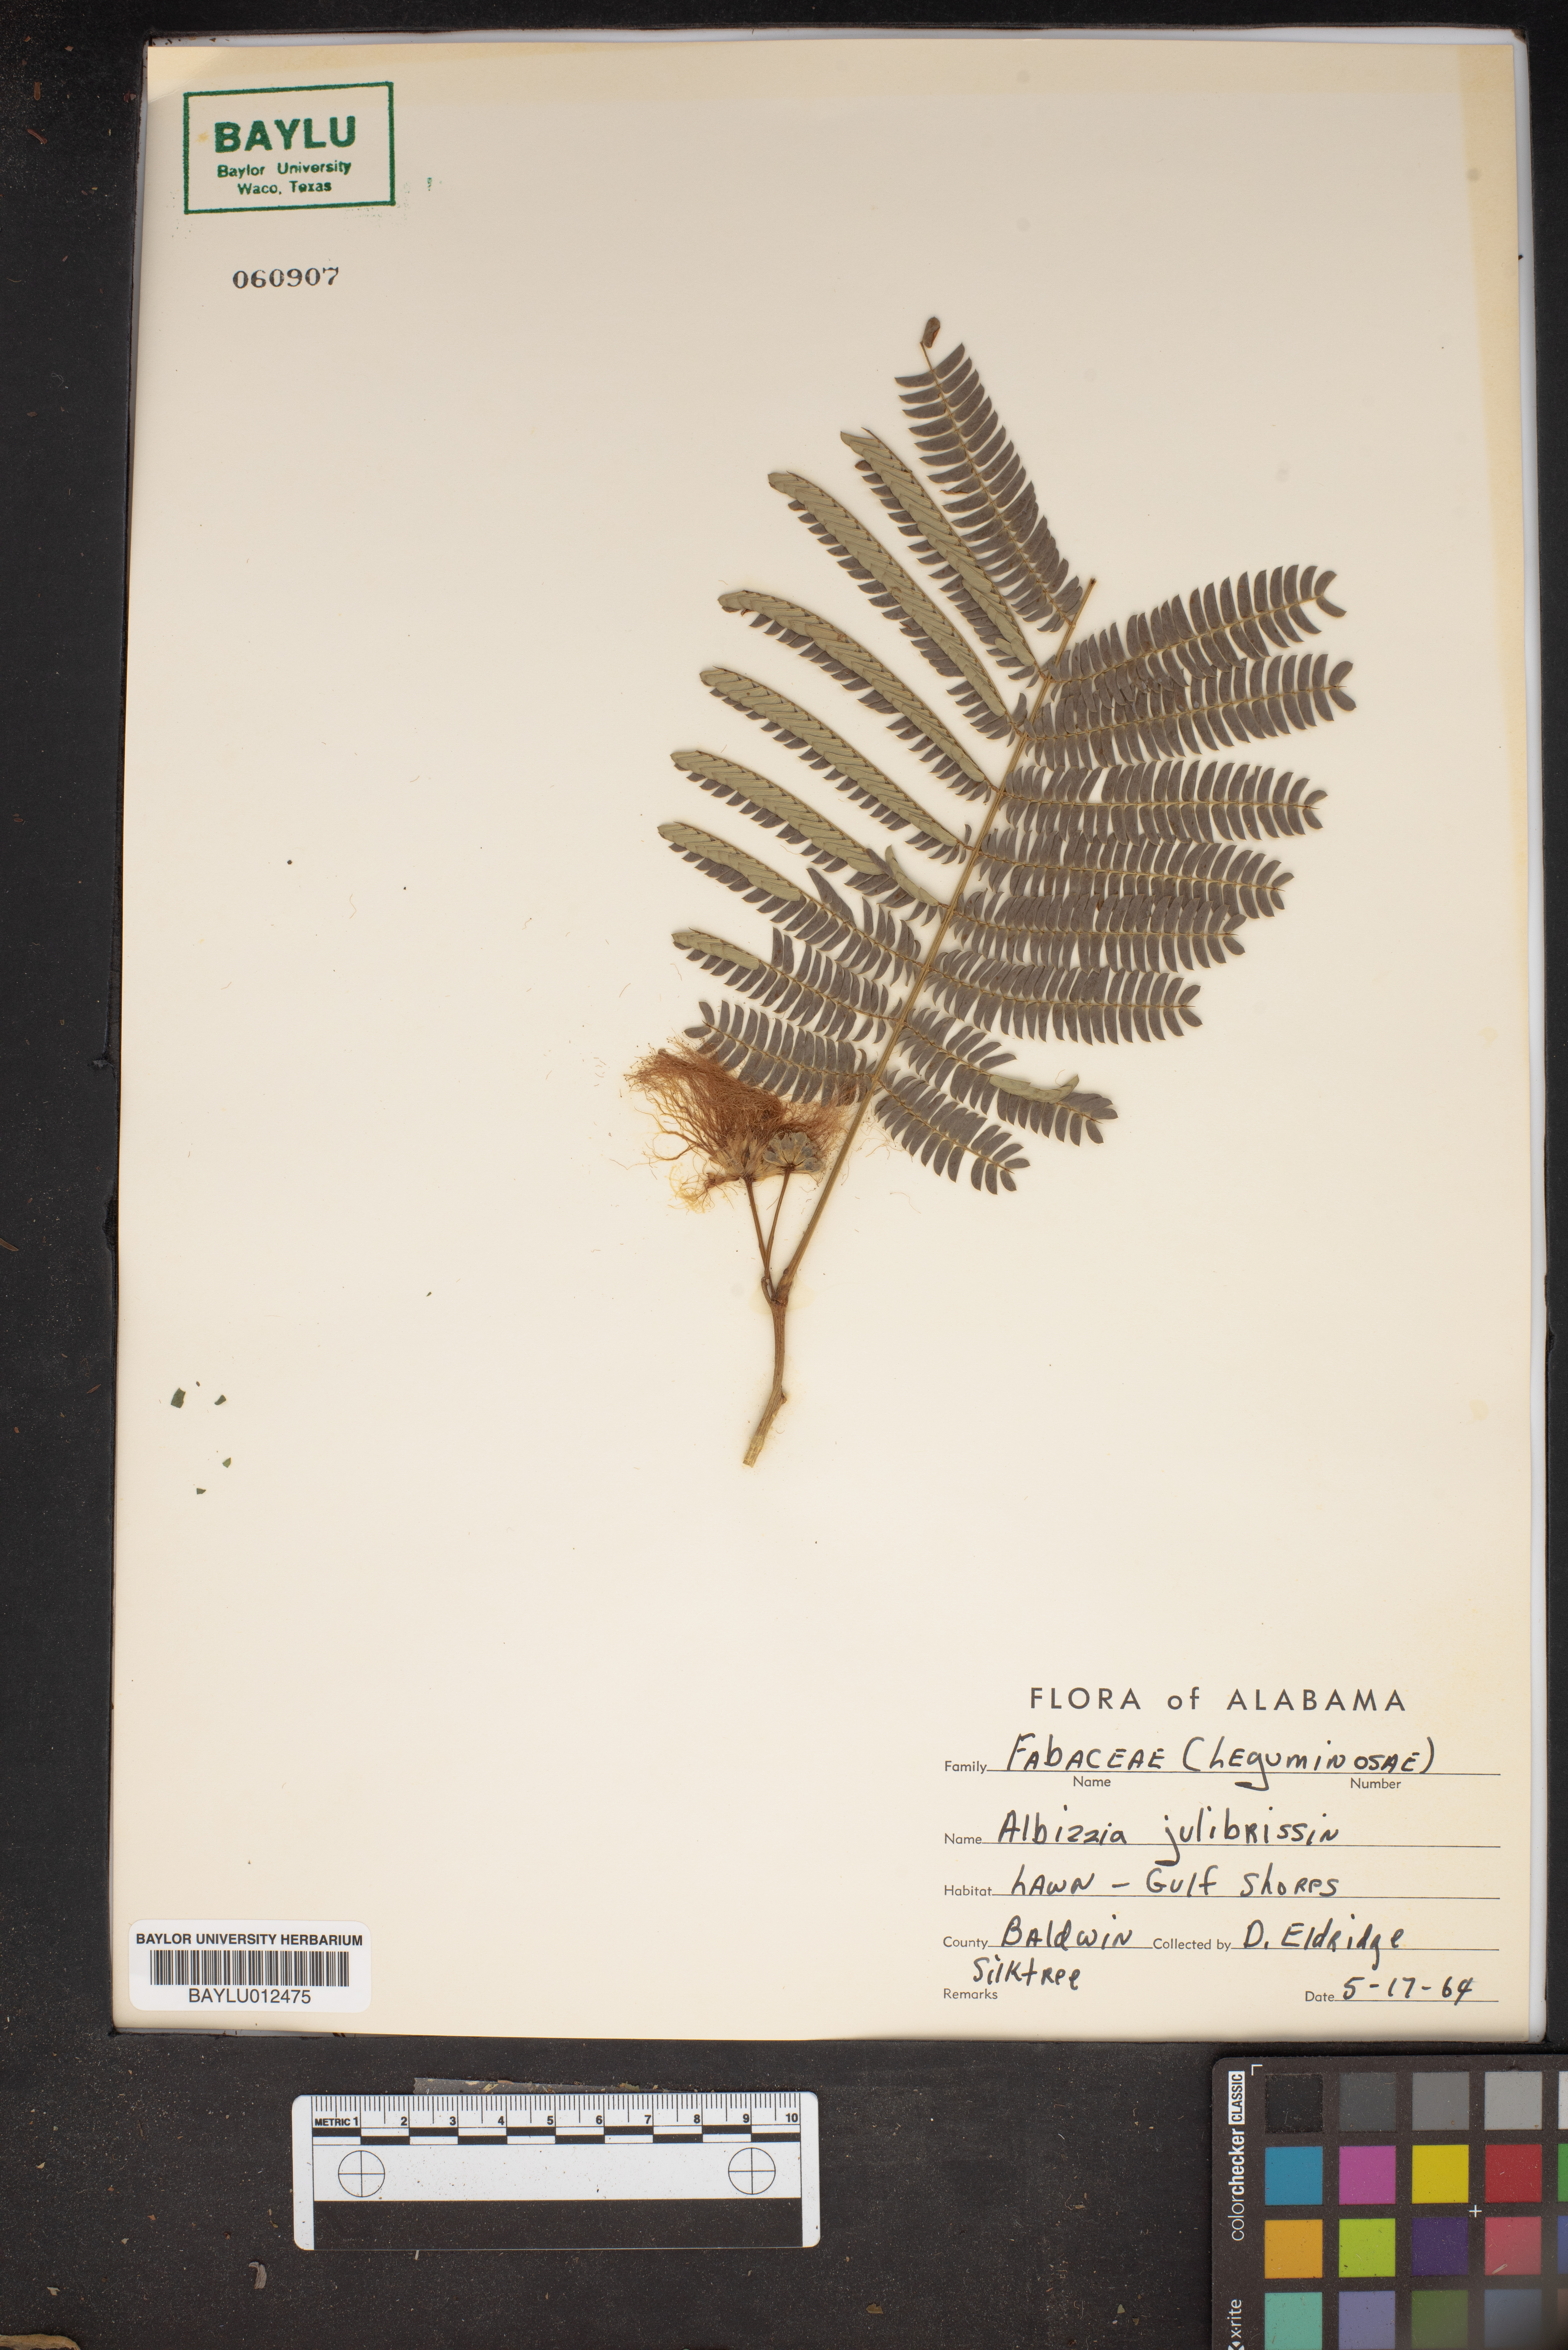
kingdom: Plantae
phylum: Tracheophyta
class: Magnoliopsida
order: Fabales
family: Fabaceae
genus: Albizia
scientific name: Albizia julibrissin
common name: Silktree
